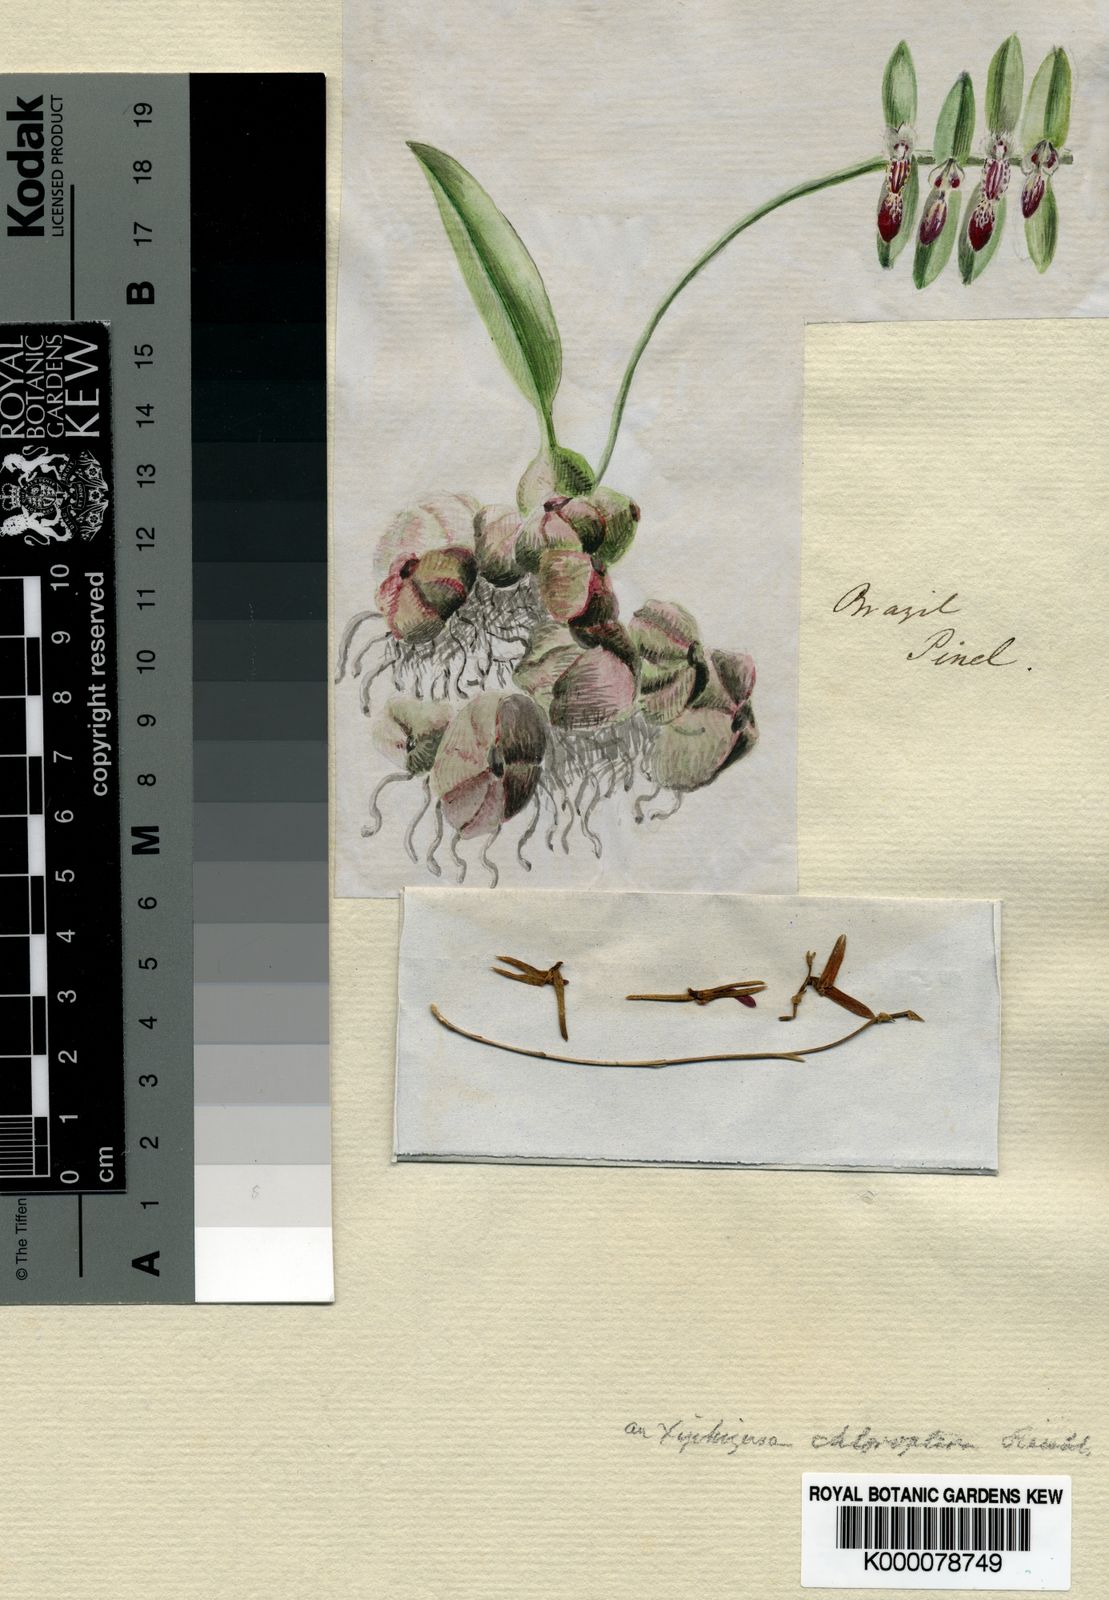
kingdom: Plantae
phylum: Tracheophyta
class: Liliopsida
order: Asparagales
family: Orchidaceae
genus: Bulbophyllum
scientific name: Bulbophyllum
